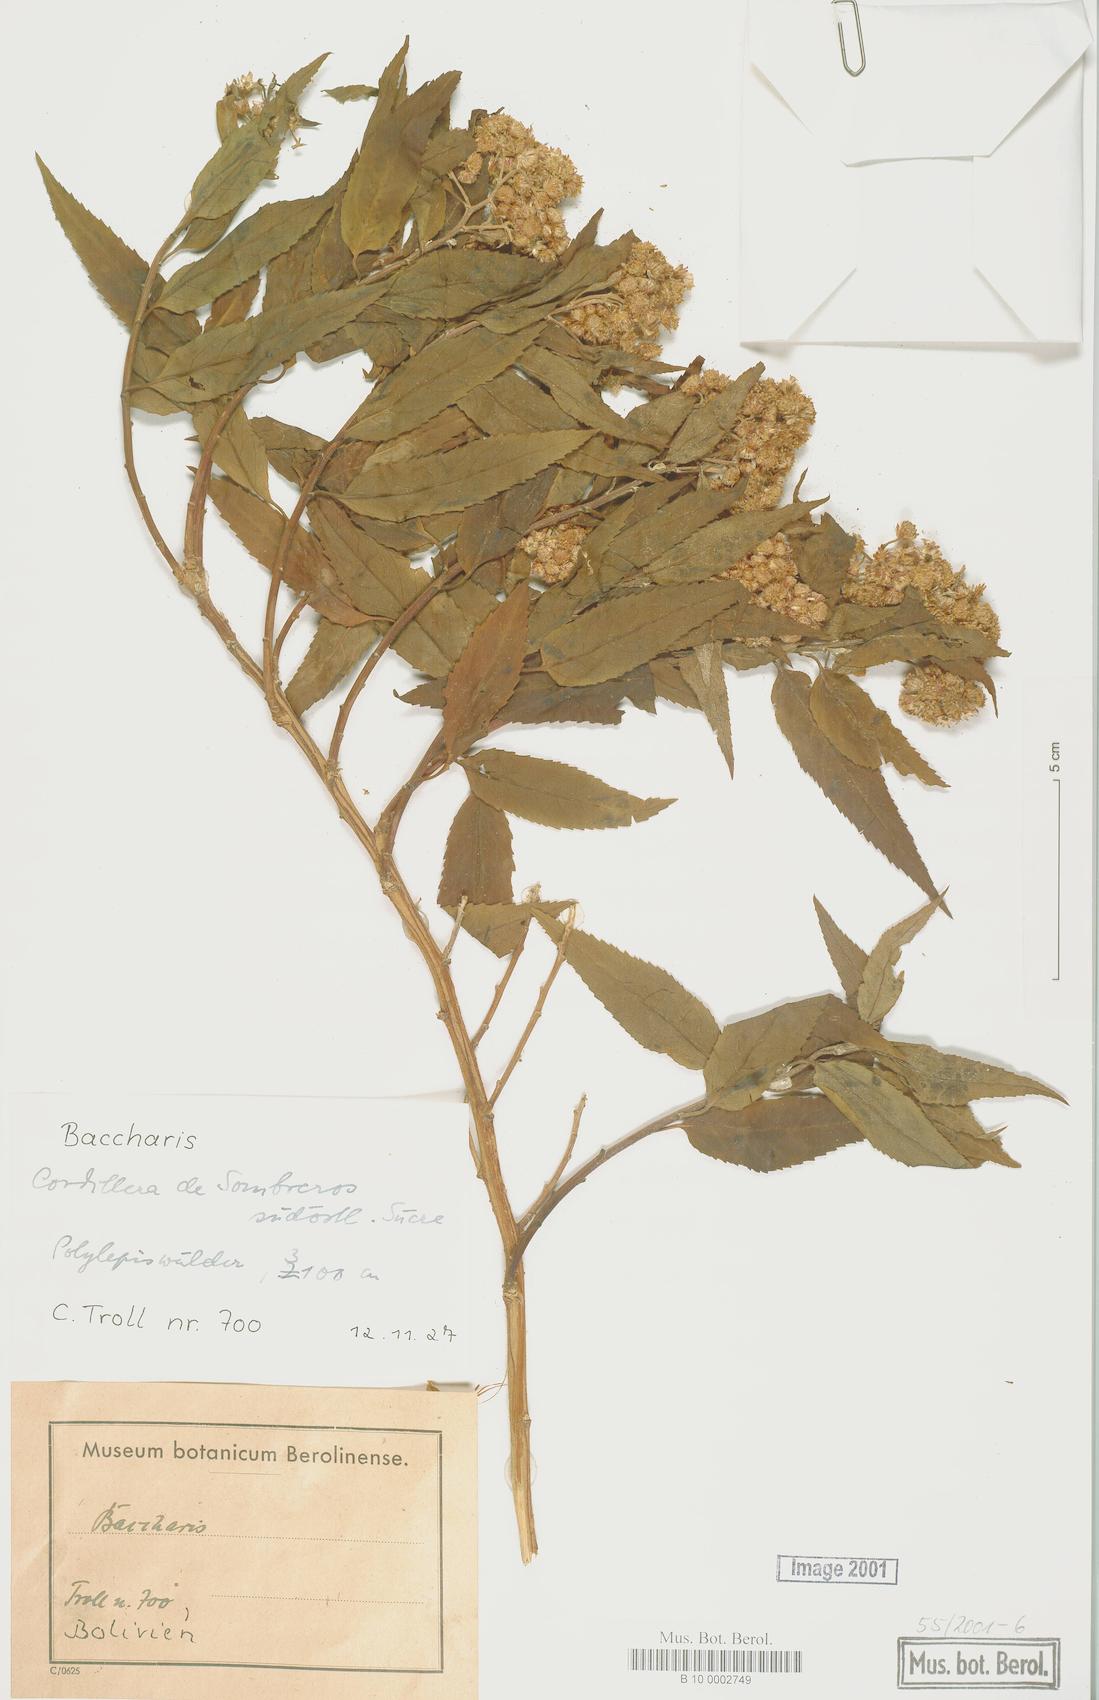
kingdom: Plantae
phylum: Tracheophyta
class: Magnoliopsida
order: Asterales
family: Asteraceae
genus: Baccharis
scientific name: Baccharis
